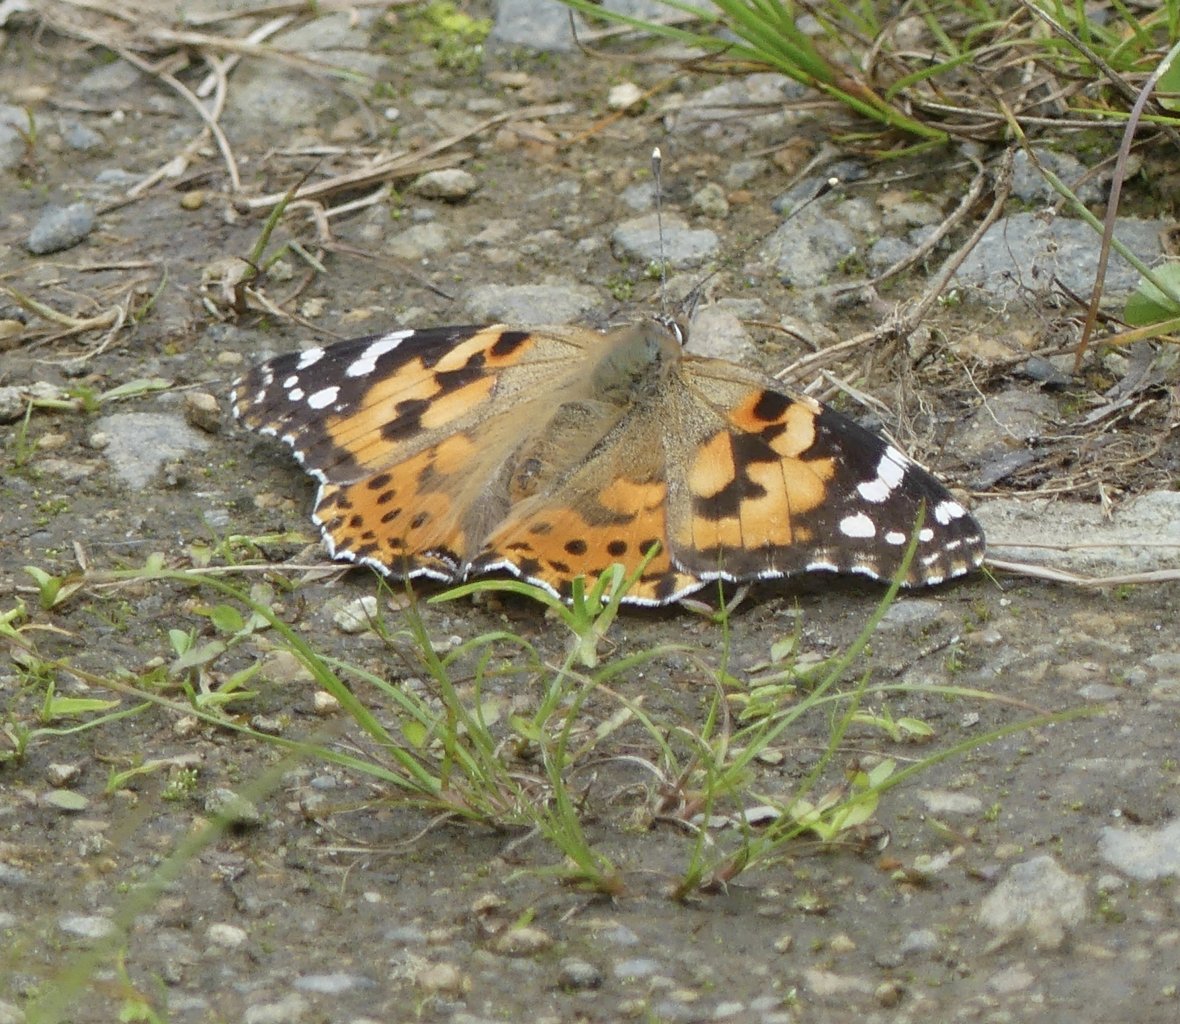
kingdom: Animalia
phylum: Arthropoda
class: Insecta
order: Lepidoptera
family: Nymphalidae
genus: Vanessa
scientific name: Vanessa cardui
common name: Painted Lady
